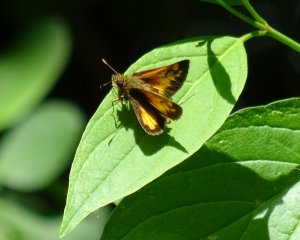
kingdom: Animalia
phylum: Arthropoda
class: Insecta
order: Lepidoptera
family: Hesperiidae
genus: Lon
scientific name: Lon hobomok
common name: Hobomok Skipper
